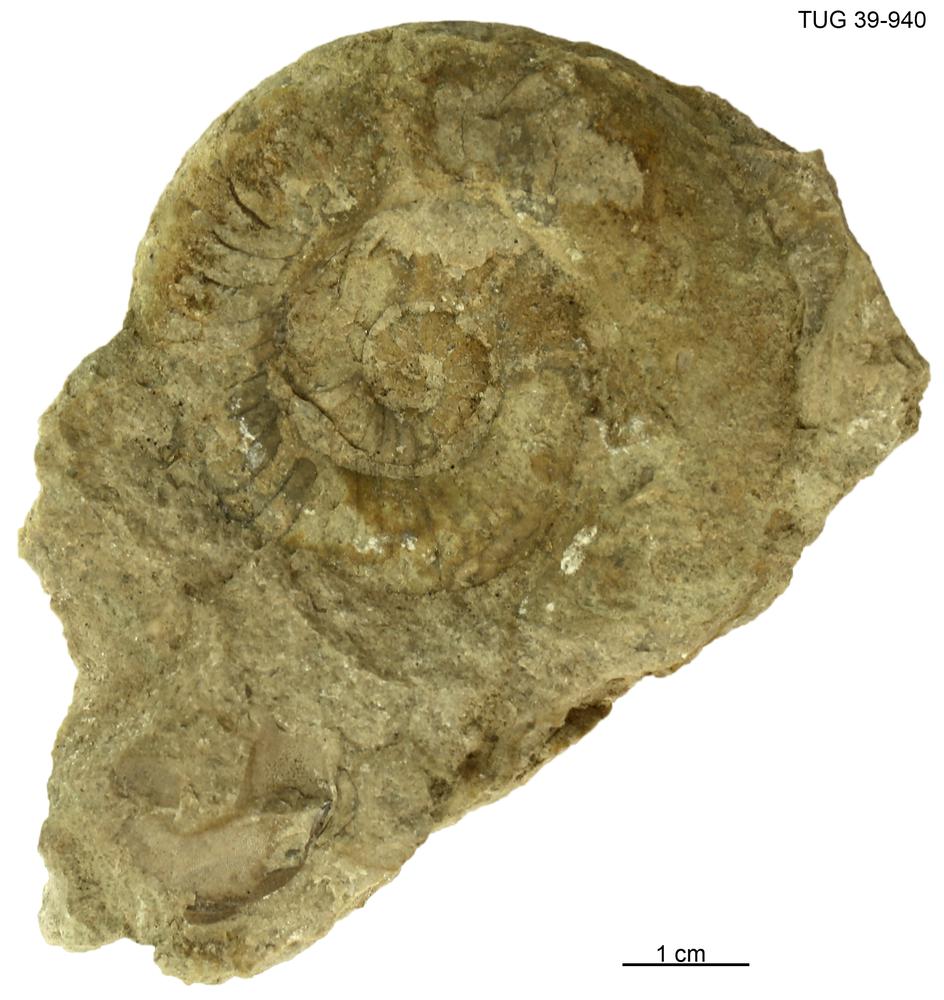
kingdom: Animalia
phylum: Mollusca
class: Cephalopoda
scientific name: Cephalopoda
